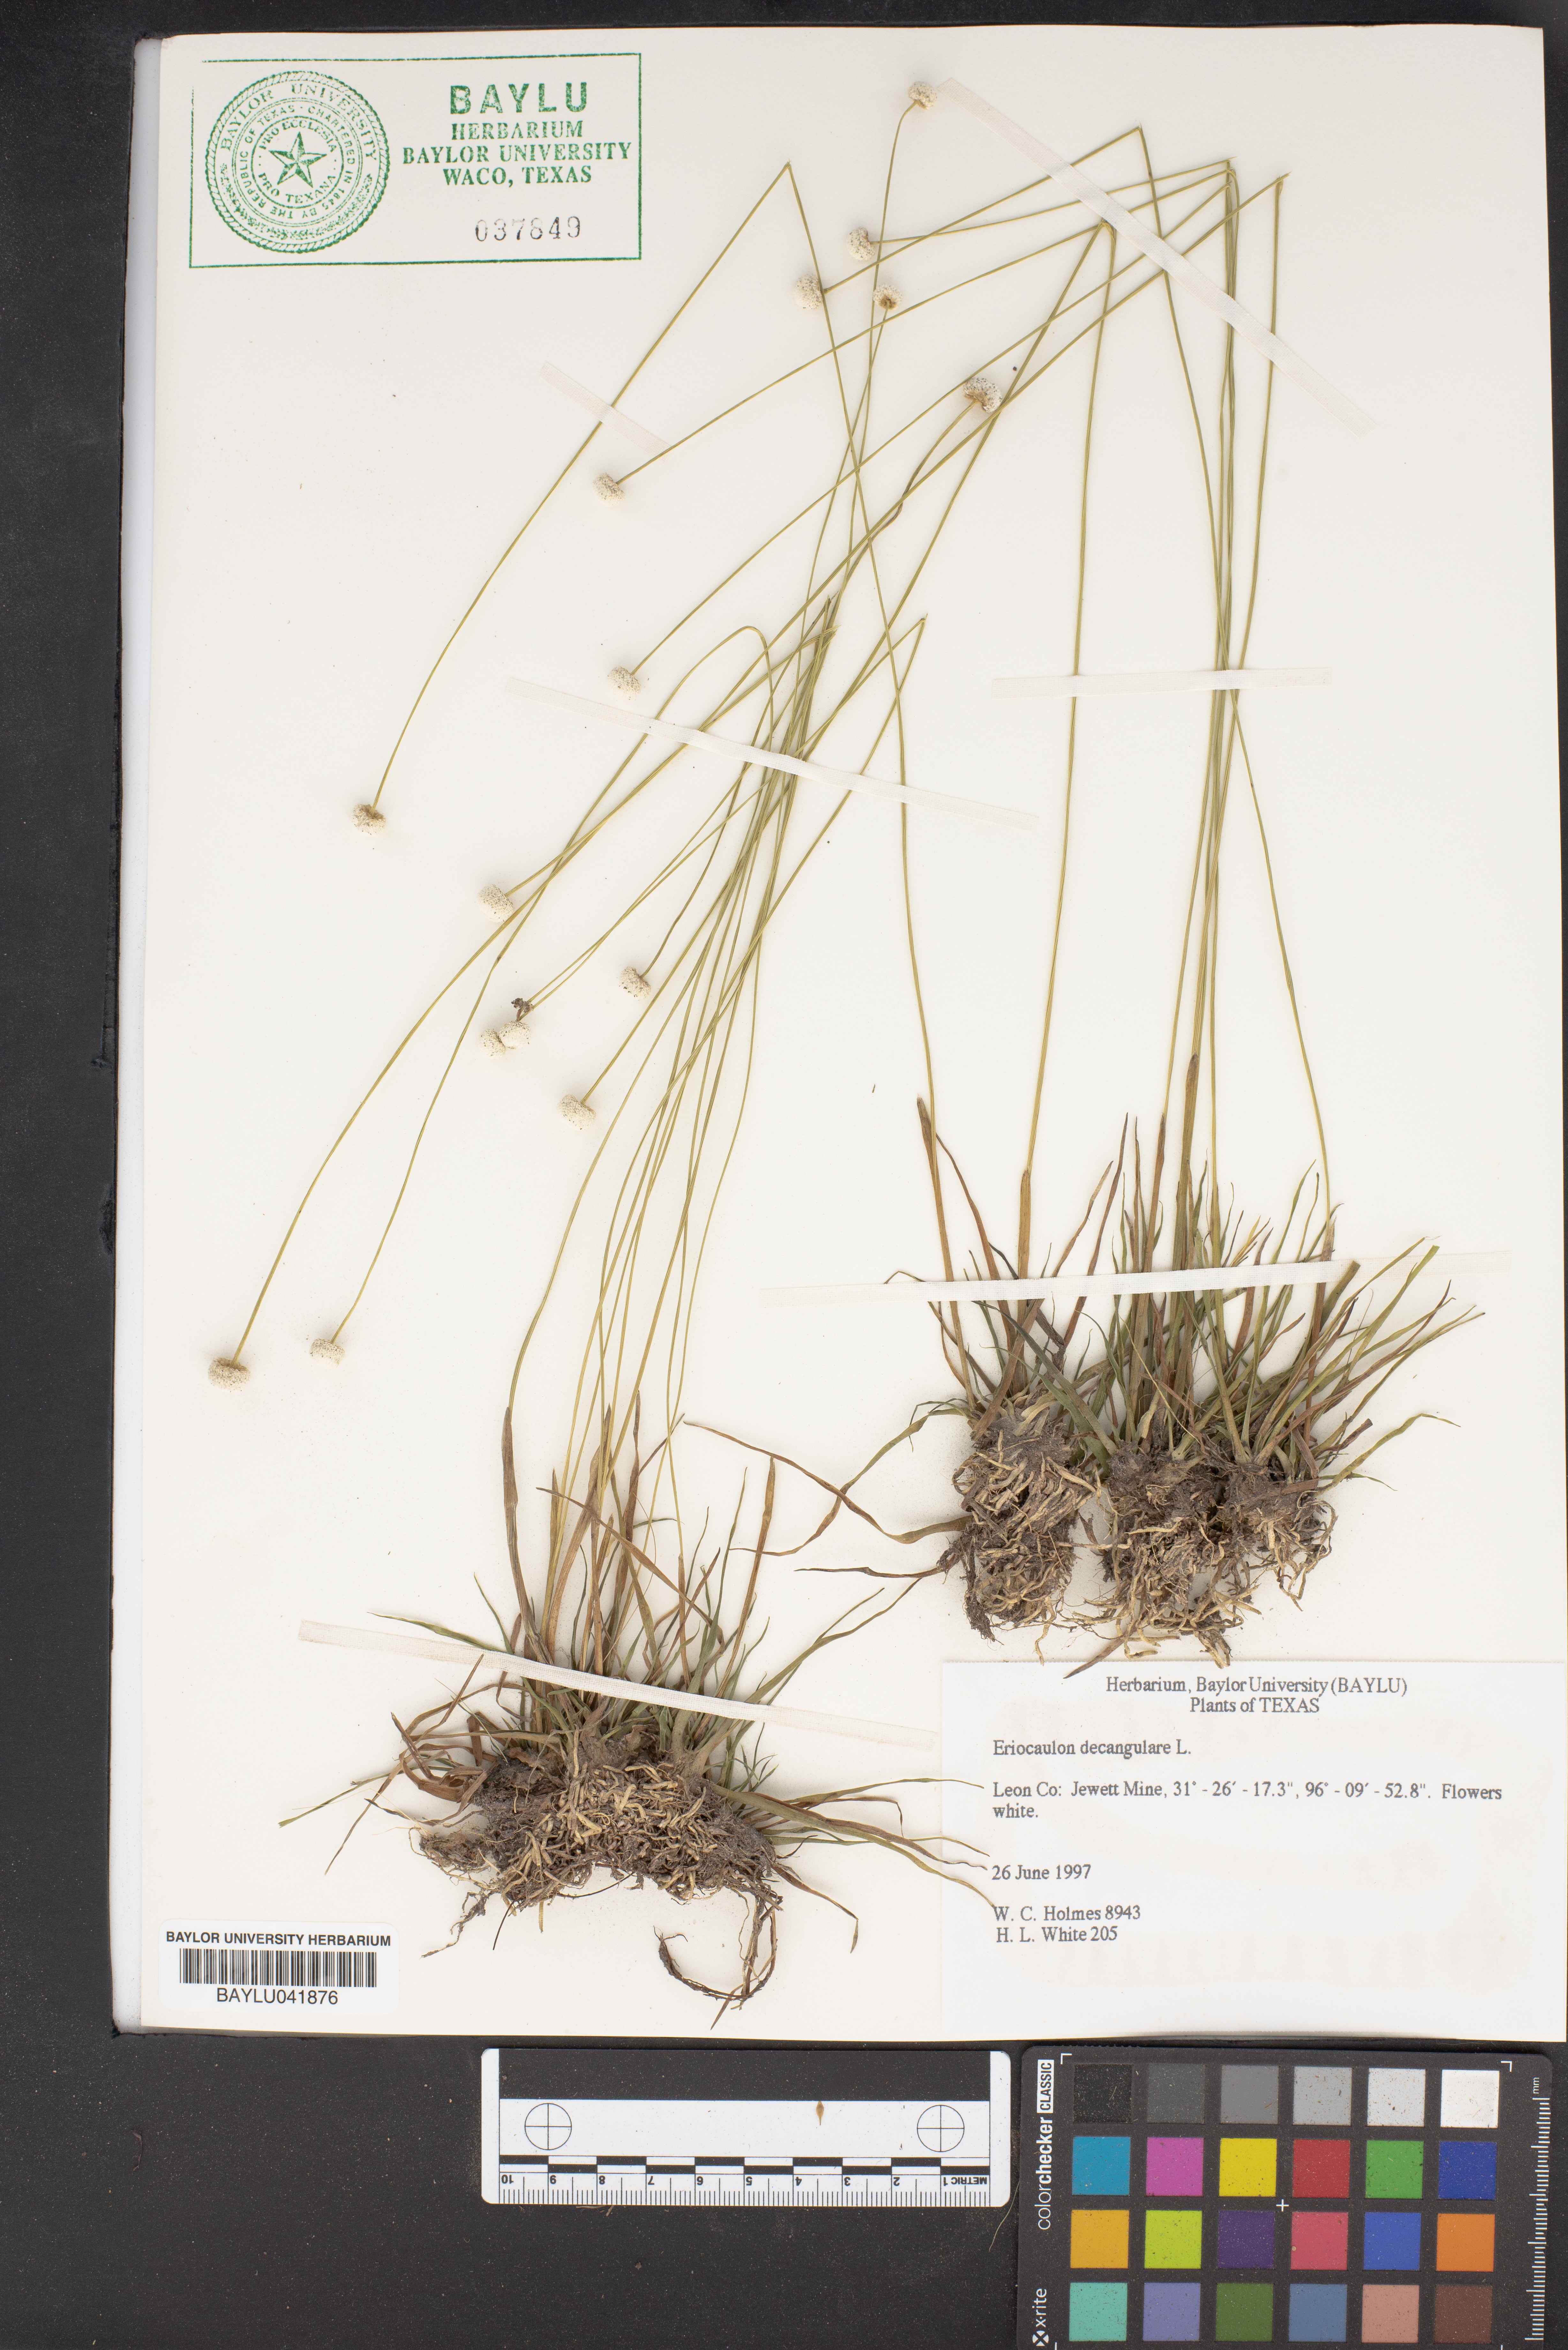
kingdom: Plantae
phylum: Tracheophyta
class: Liliopsida
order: Poales
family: Eriocaulaceae
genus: Eriocaulon
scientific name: Eriocaulon decangulare
